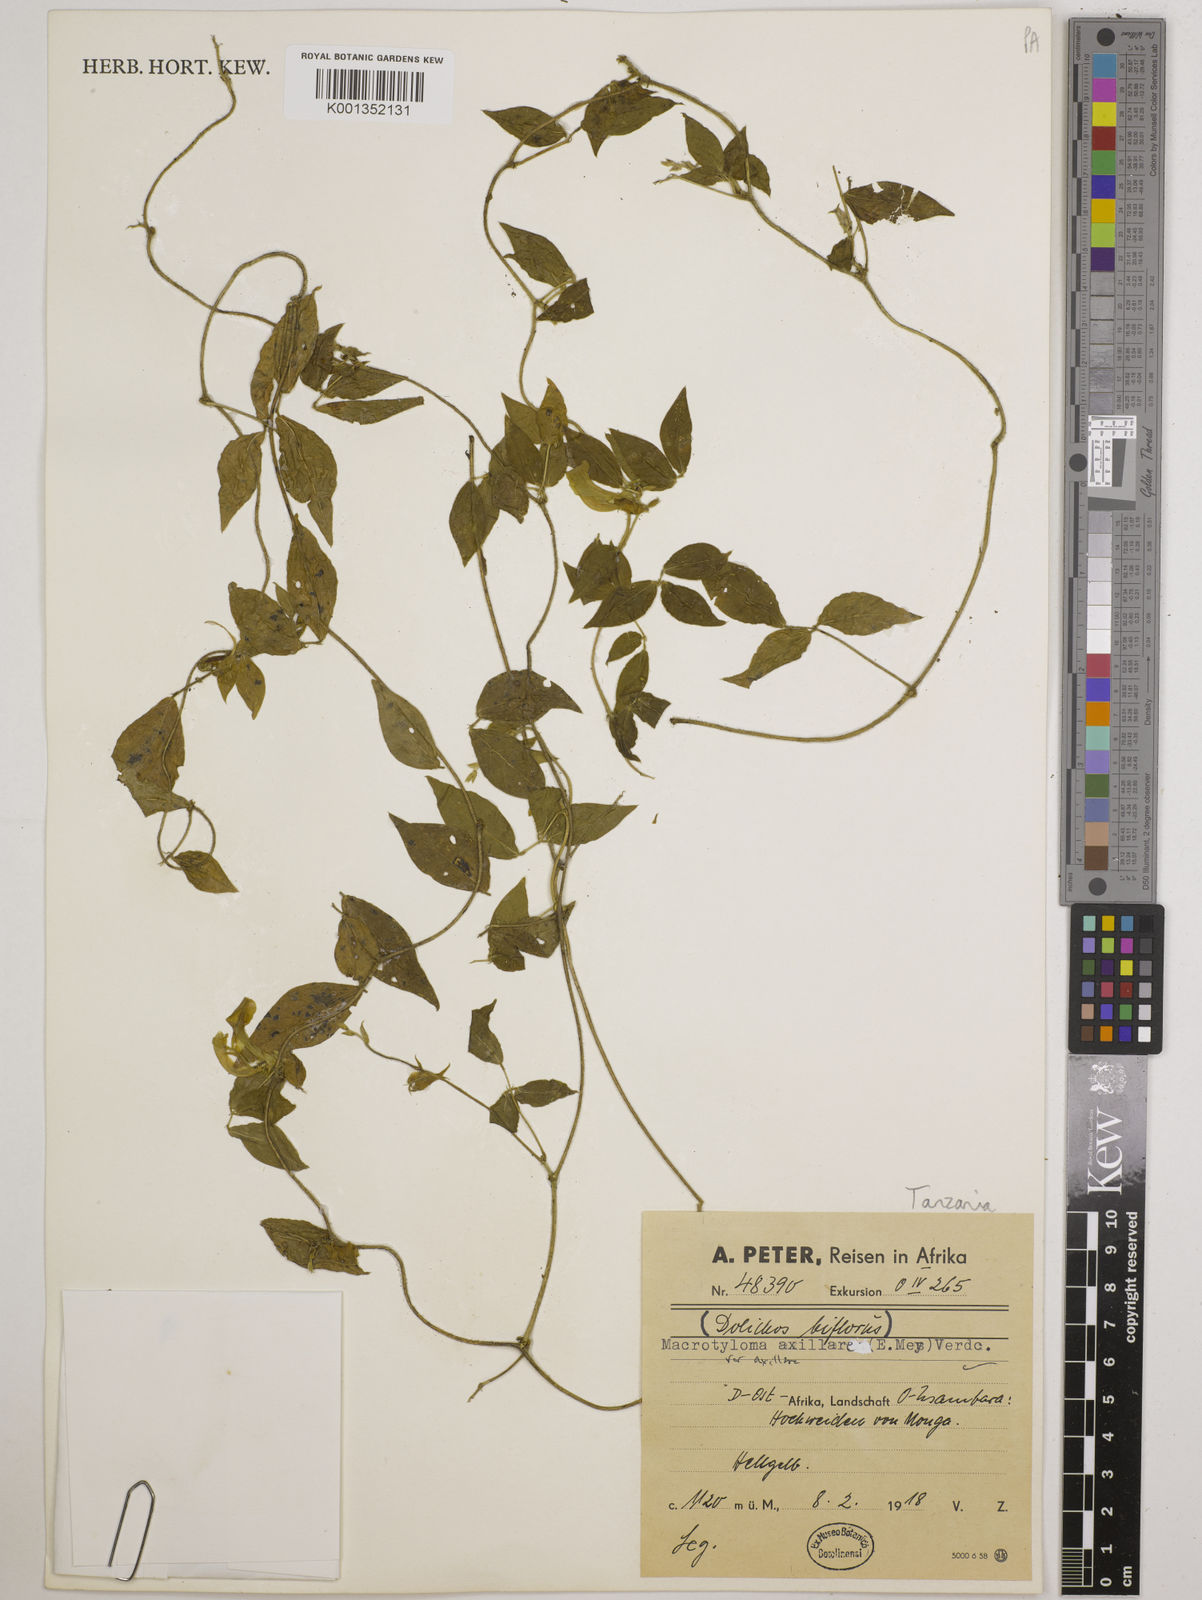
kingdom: Plantae
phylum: Tracheophyta
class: Magnoliopsida
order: Fabales
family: Fabaceae
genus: Macrotyloma
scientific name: Macrotyloma axillare
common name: Perennial horsegram
